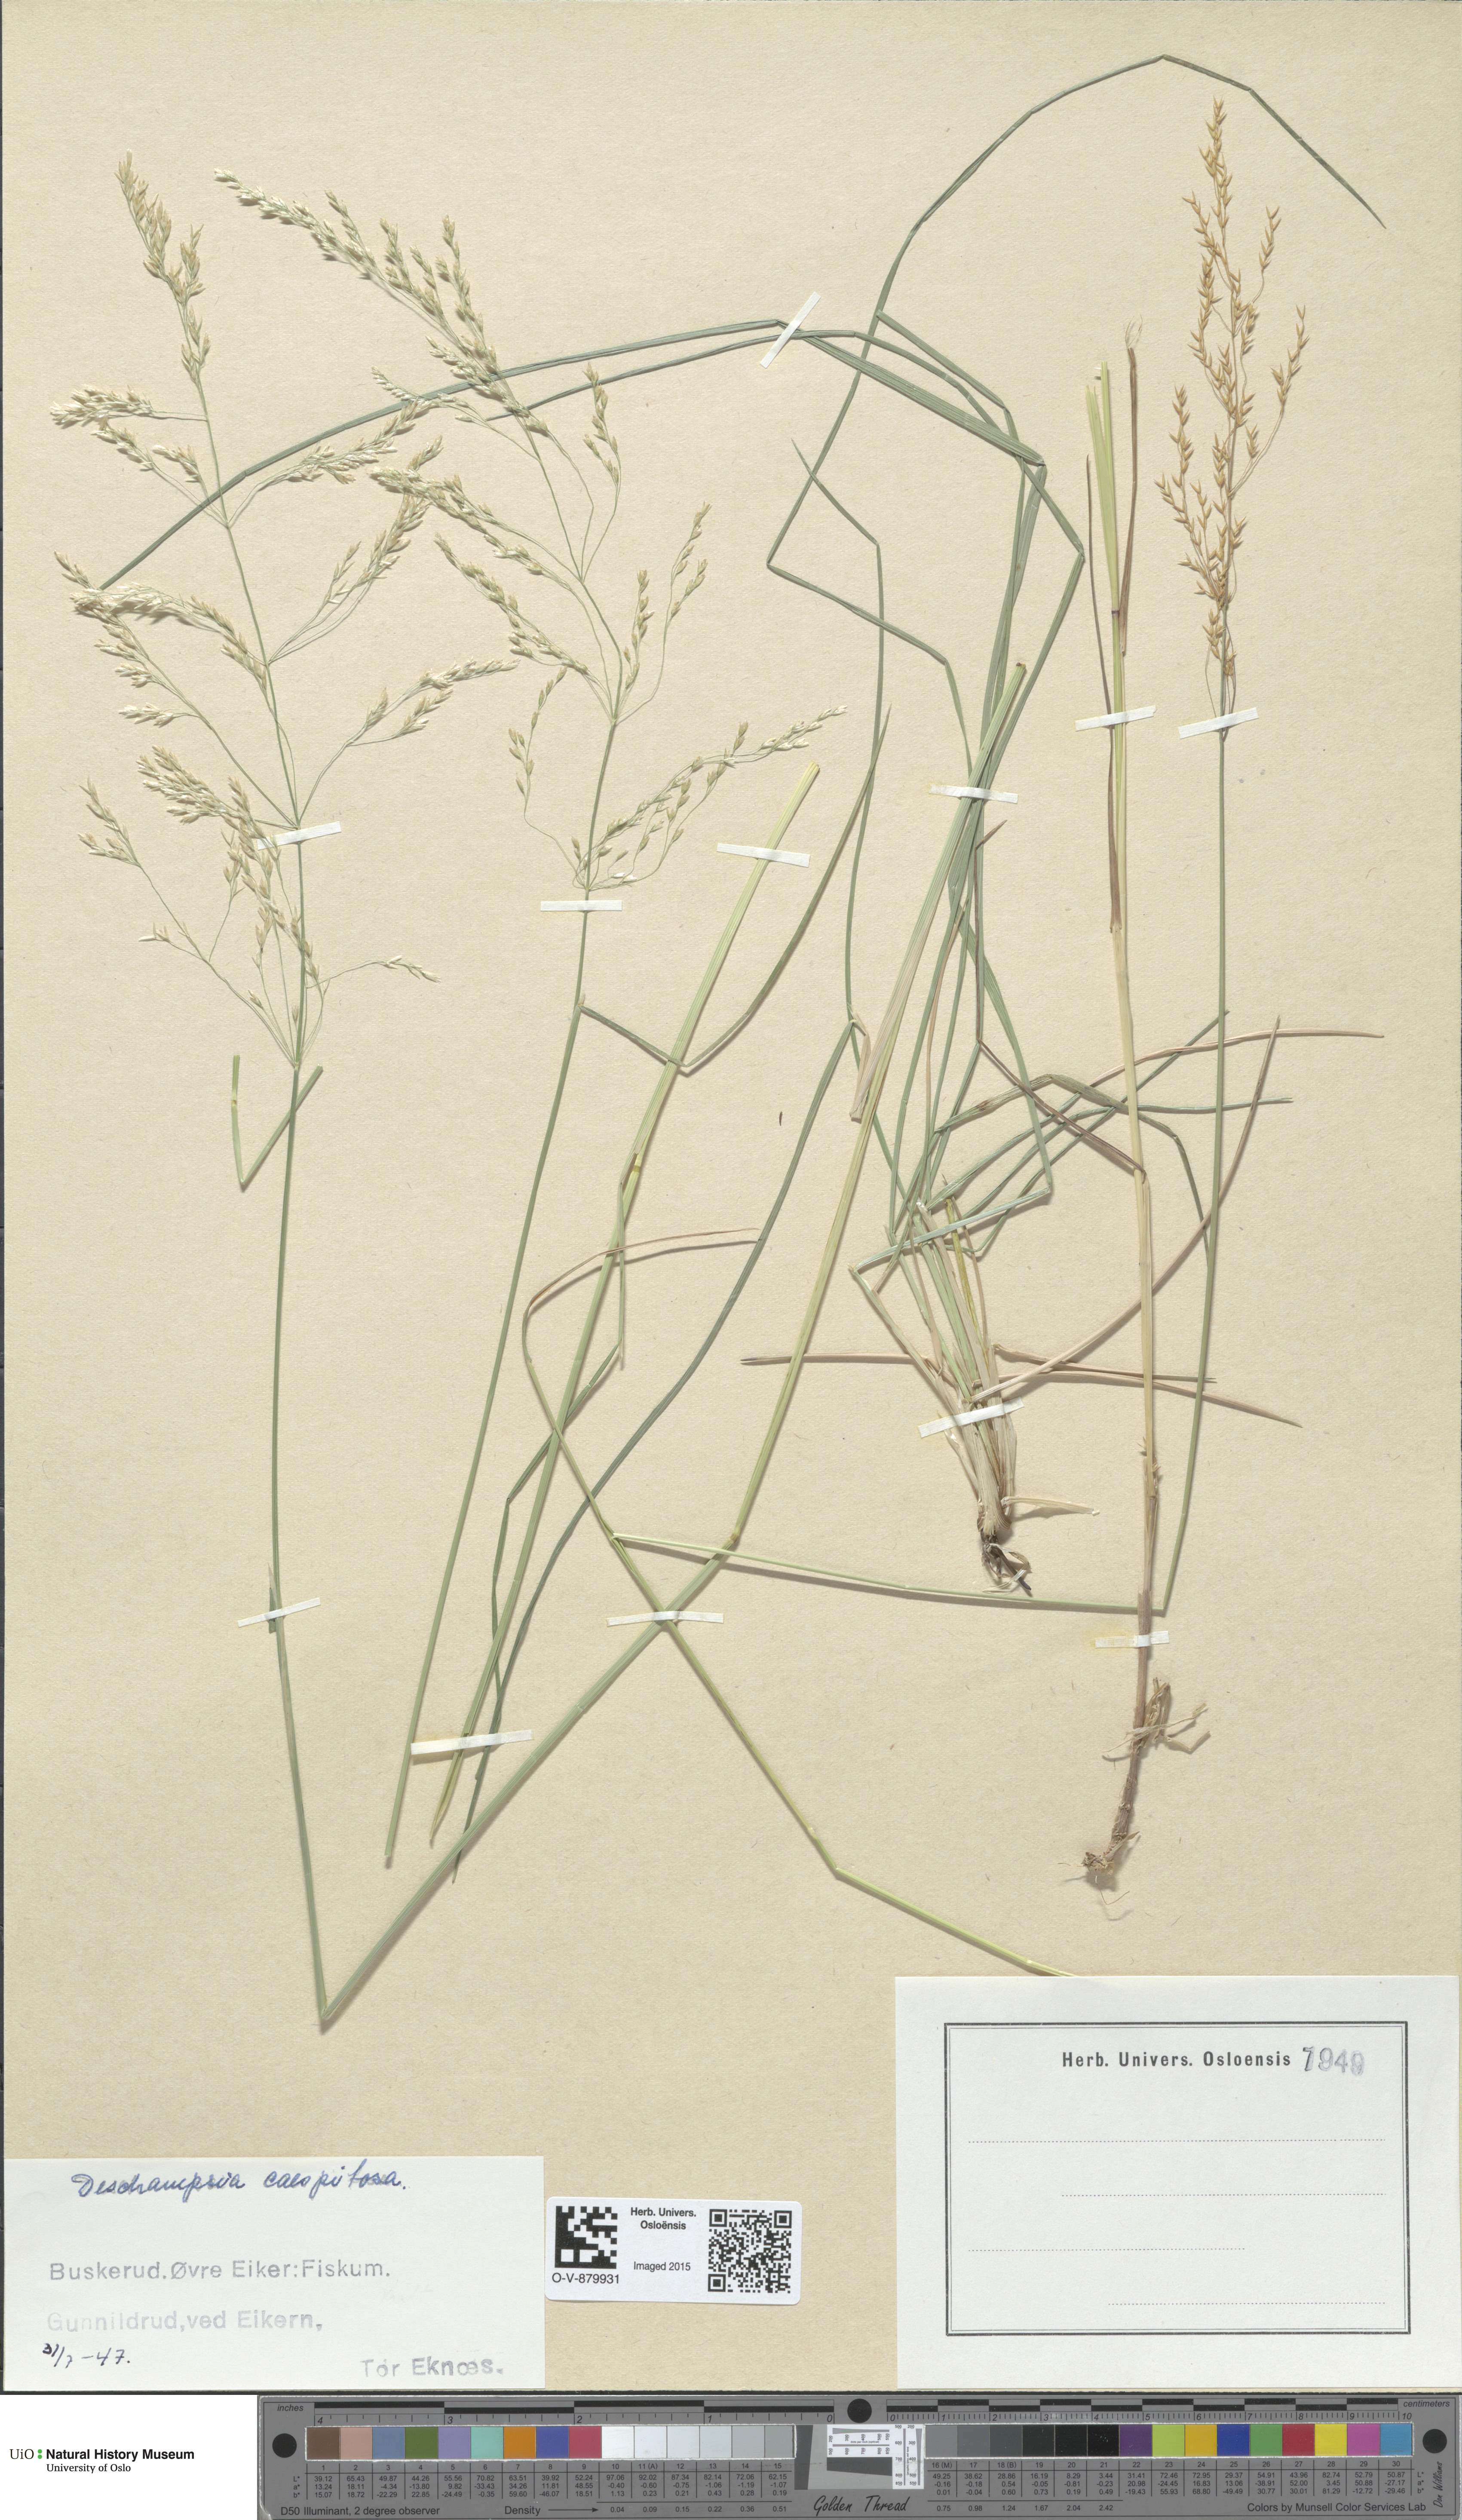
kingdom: Plantae
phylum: Tracheophyta
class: Liliopsida
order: Poales
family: Poaceae
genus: Deschampsia
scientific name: Deschampsia cespitosa
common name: Tufted hair-grass
